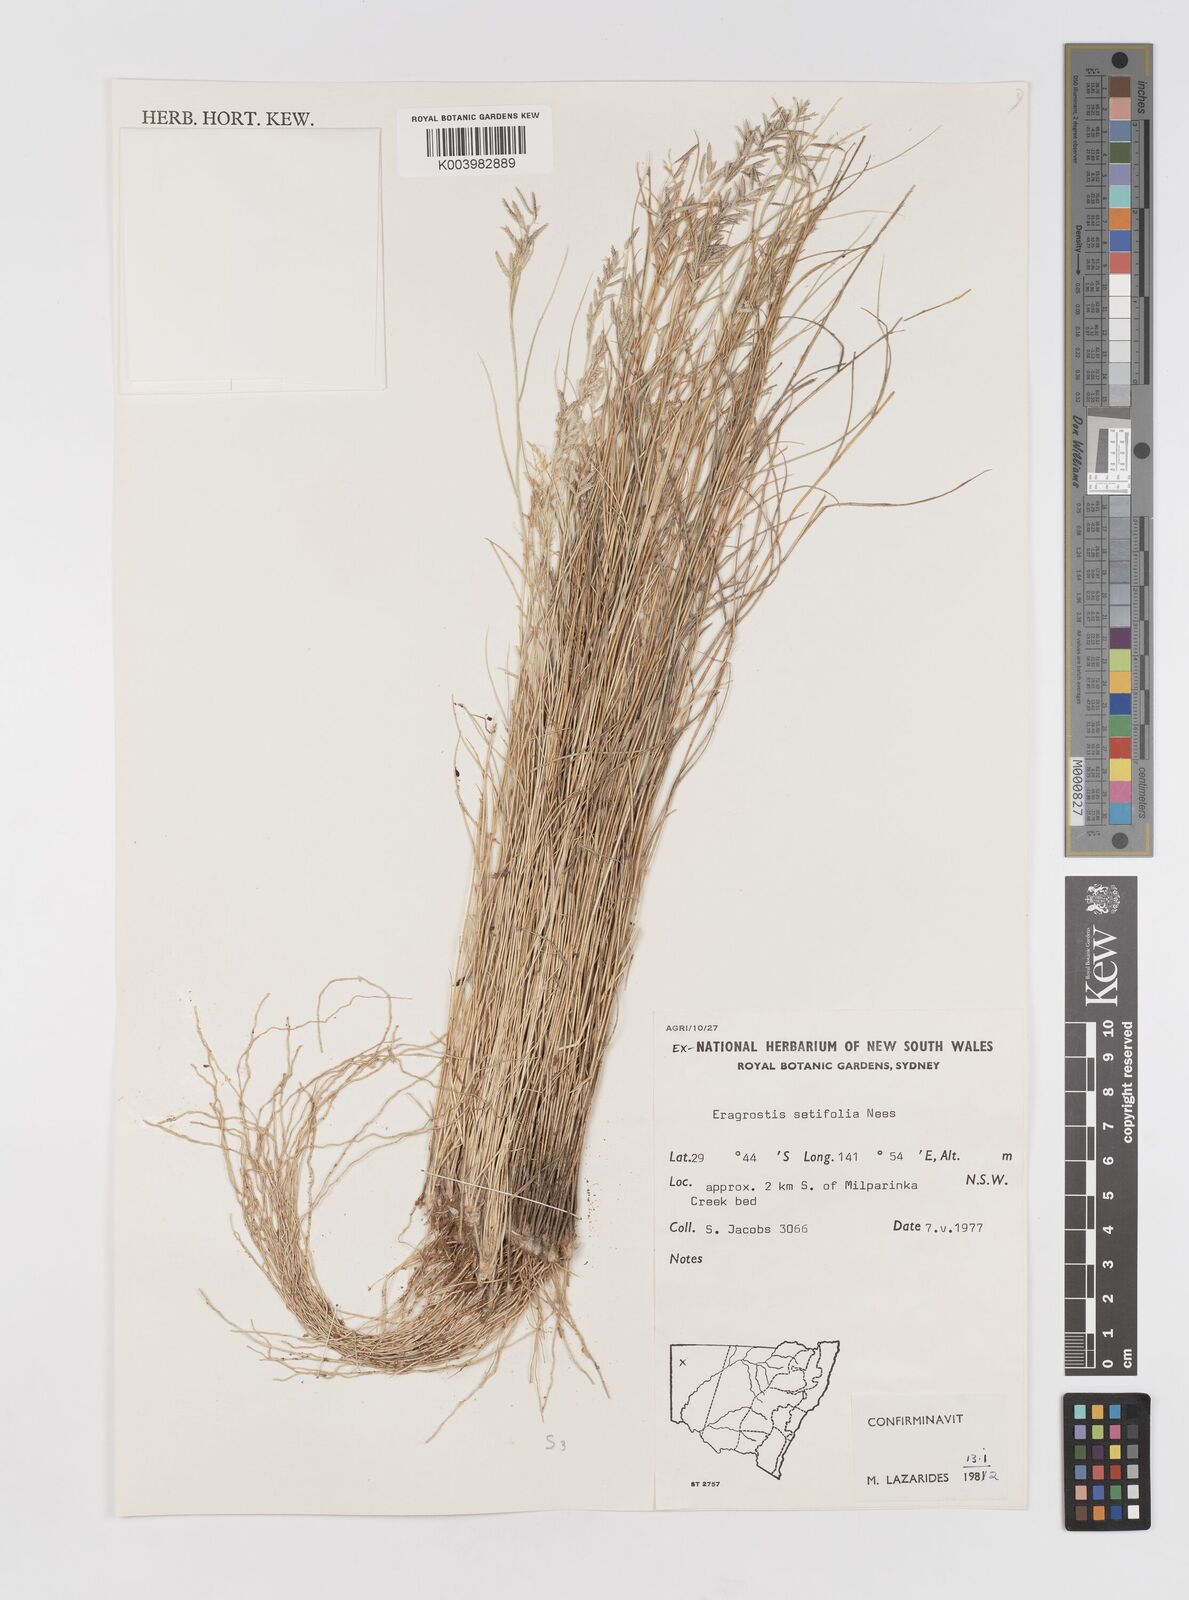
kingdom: Plantae
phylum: Tracheophyta
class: Liliopsida
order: Poales
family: Poaceae
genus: Eragrostis
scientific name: Eragrostis setifolia
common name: Bristleleaf lovegrass
